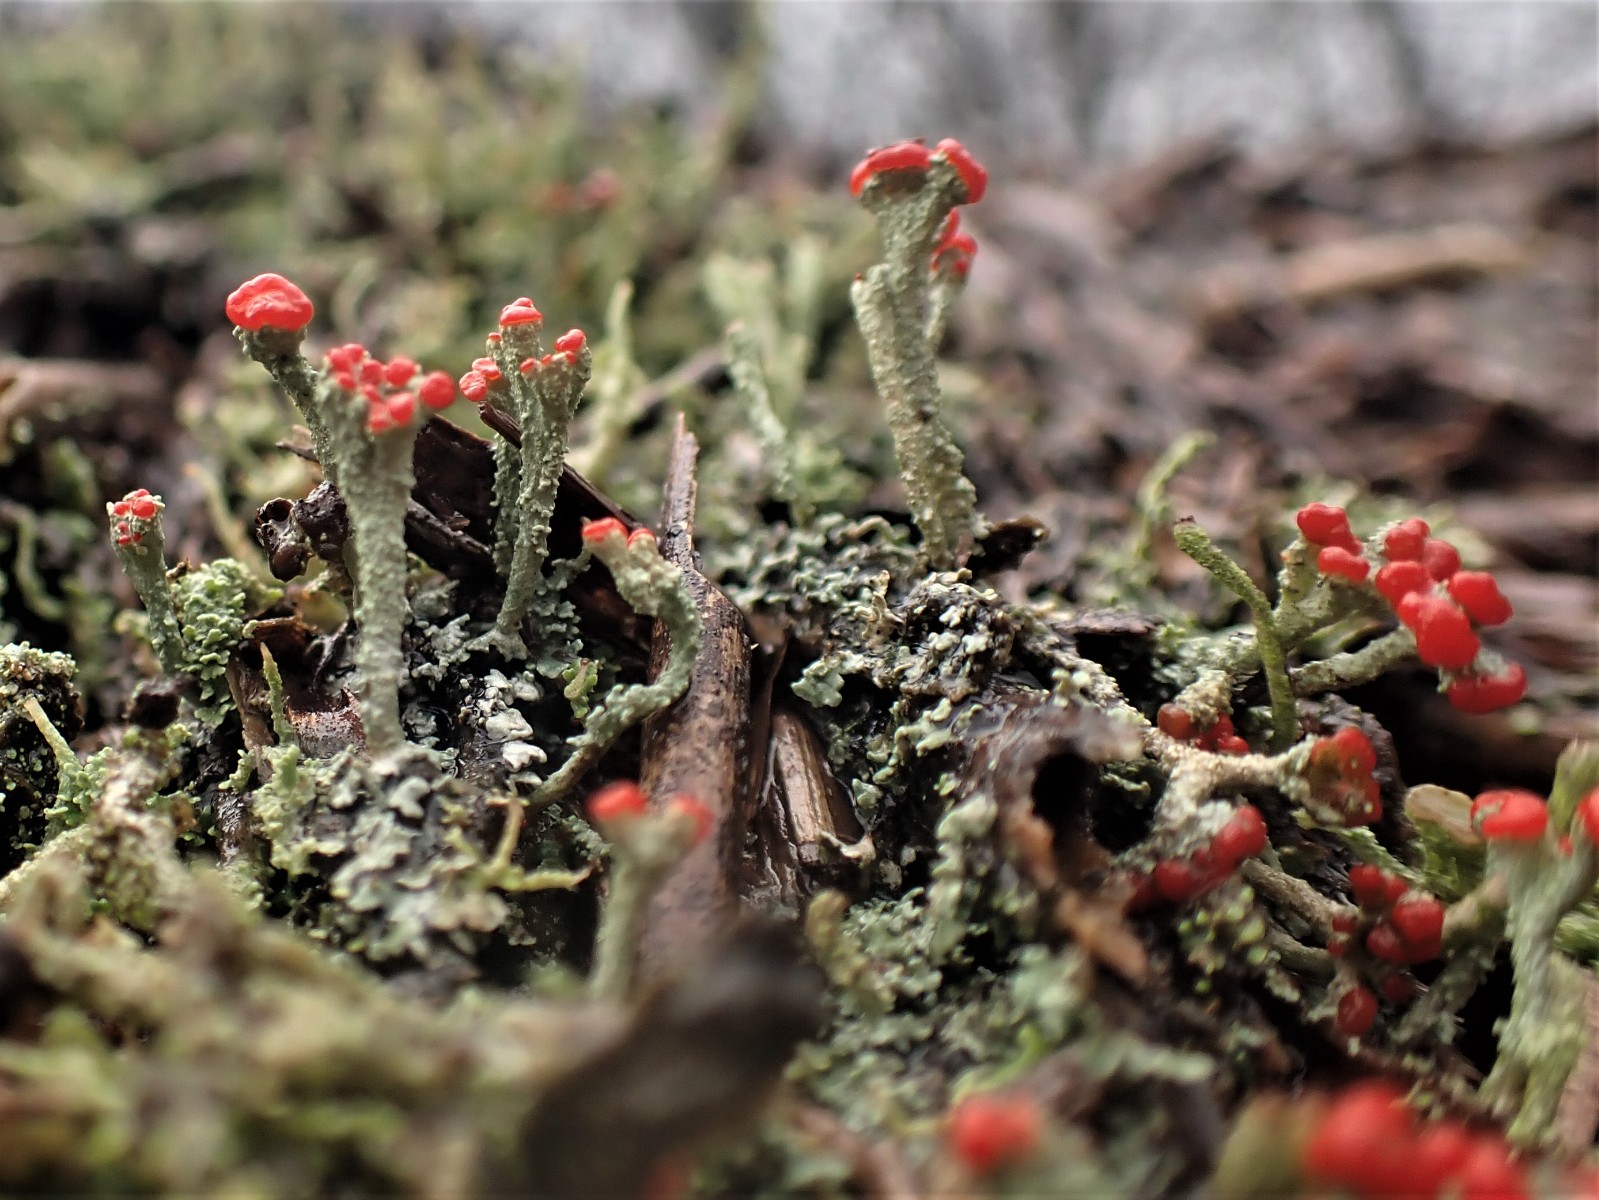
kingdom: Fungi
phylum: Ascomycota
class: Lecanoromycetes
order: Lecanorales
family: Cladoniaceae
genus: Cladonia
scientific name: Cladonia floerkeana
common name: lakrød bægerlav
